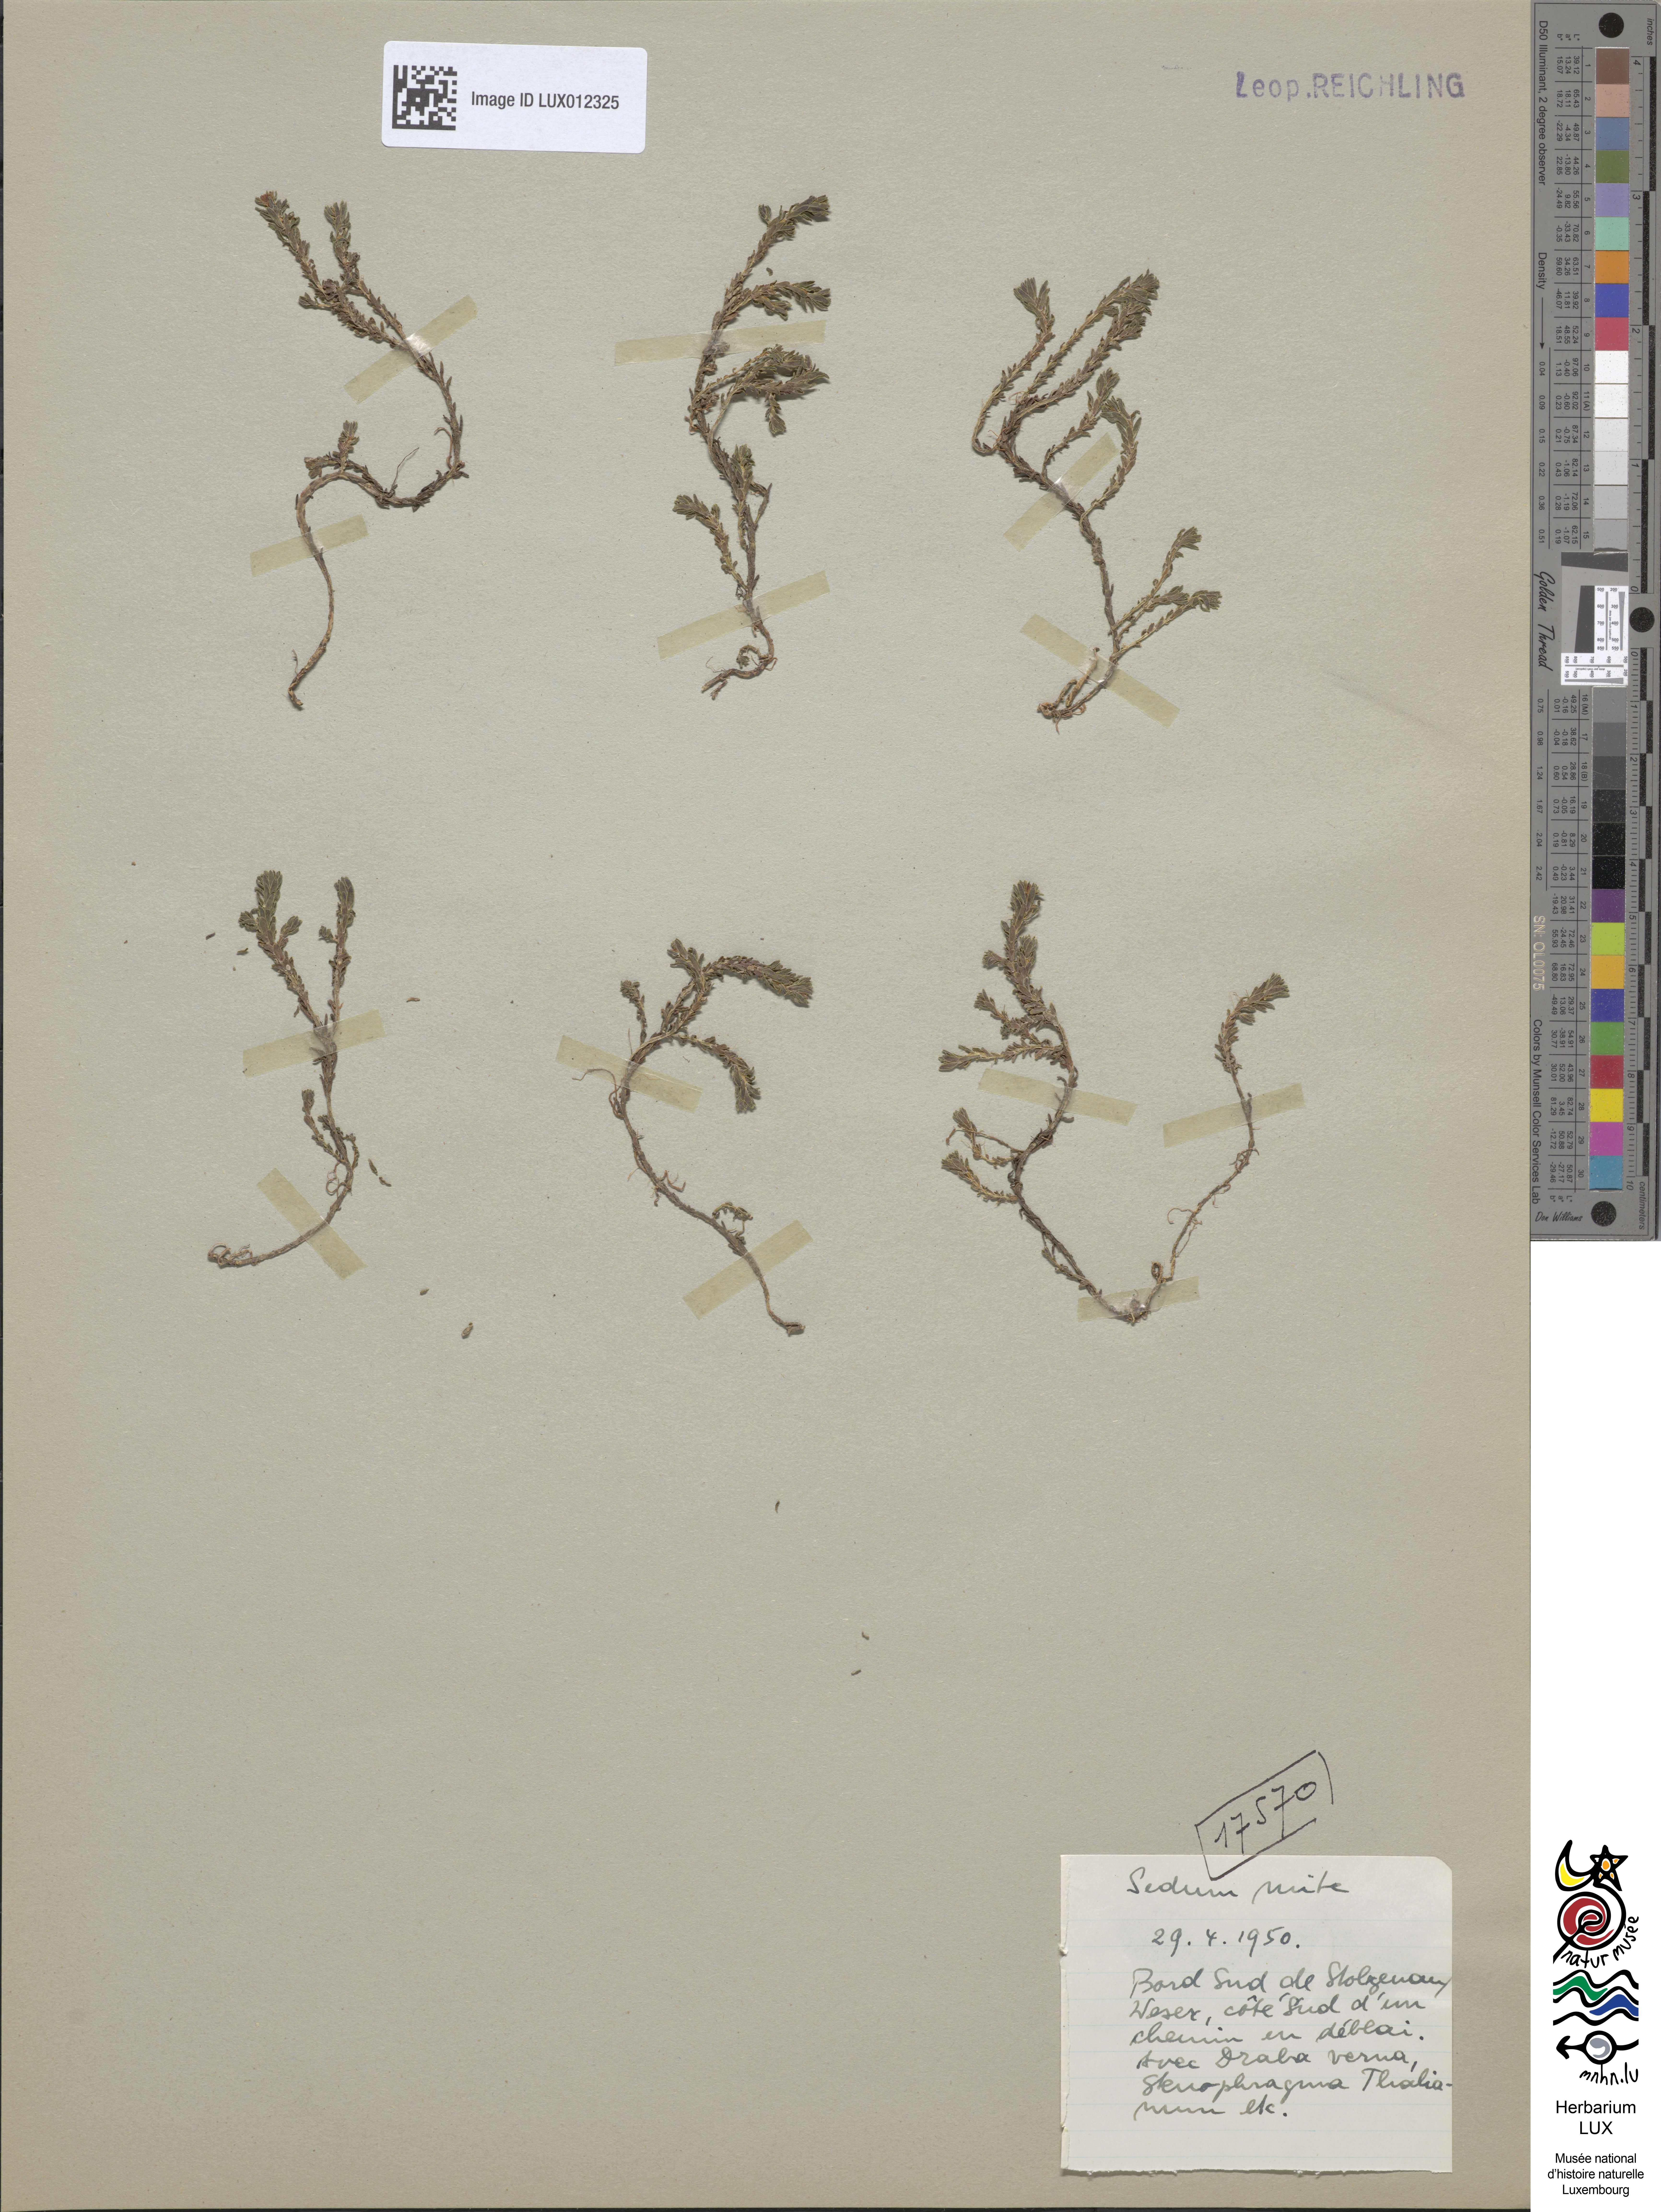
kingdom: Plantae
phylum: Tracheophyta
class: Magnoliopsida
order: Saxifragales
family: Crassulaceae
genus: Sedum
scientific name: Sedum sexangulare
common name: Tasteless stonecrop
